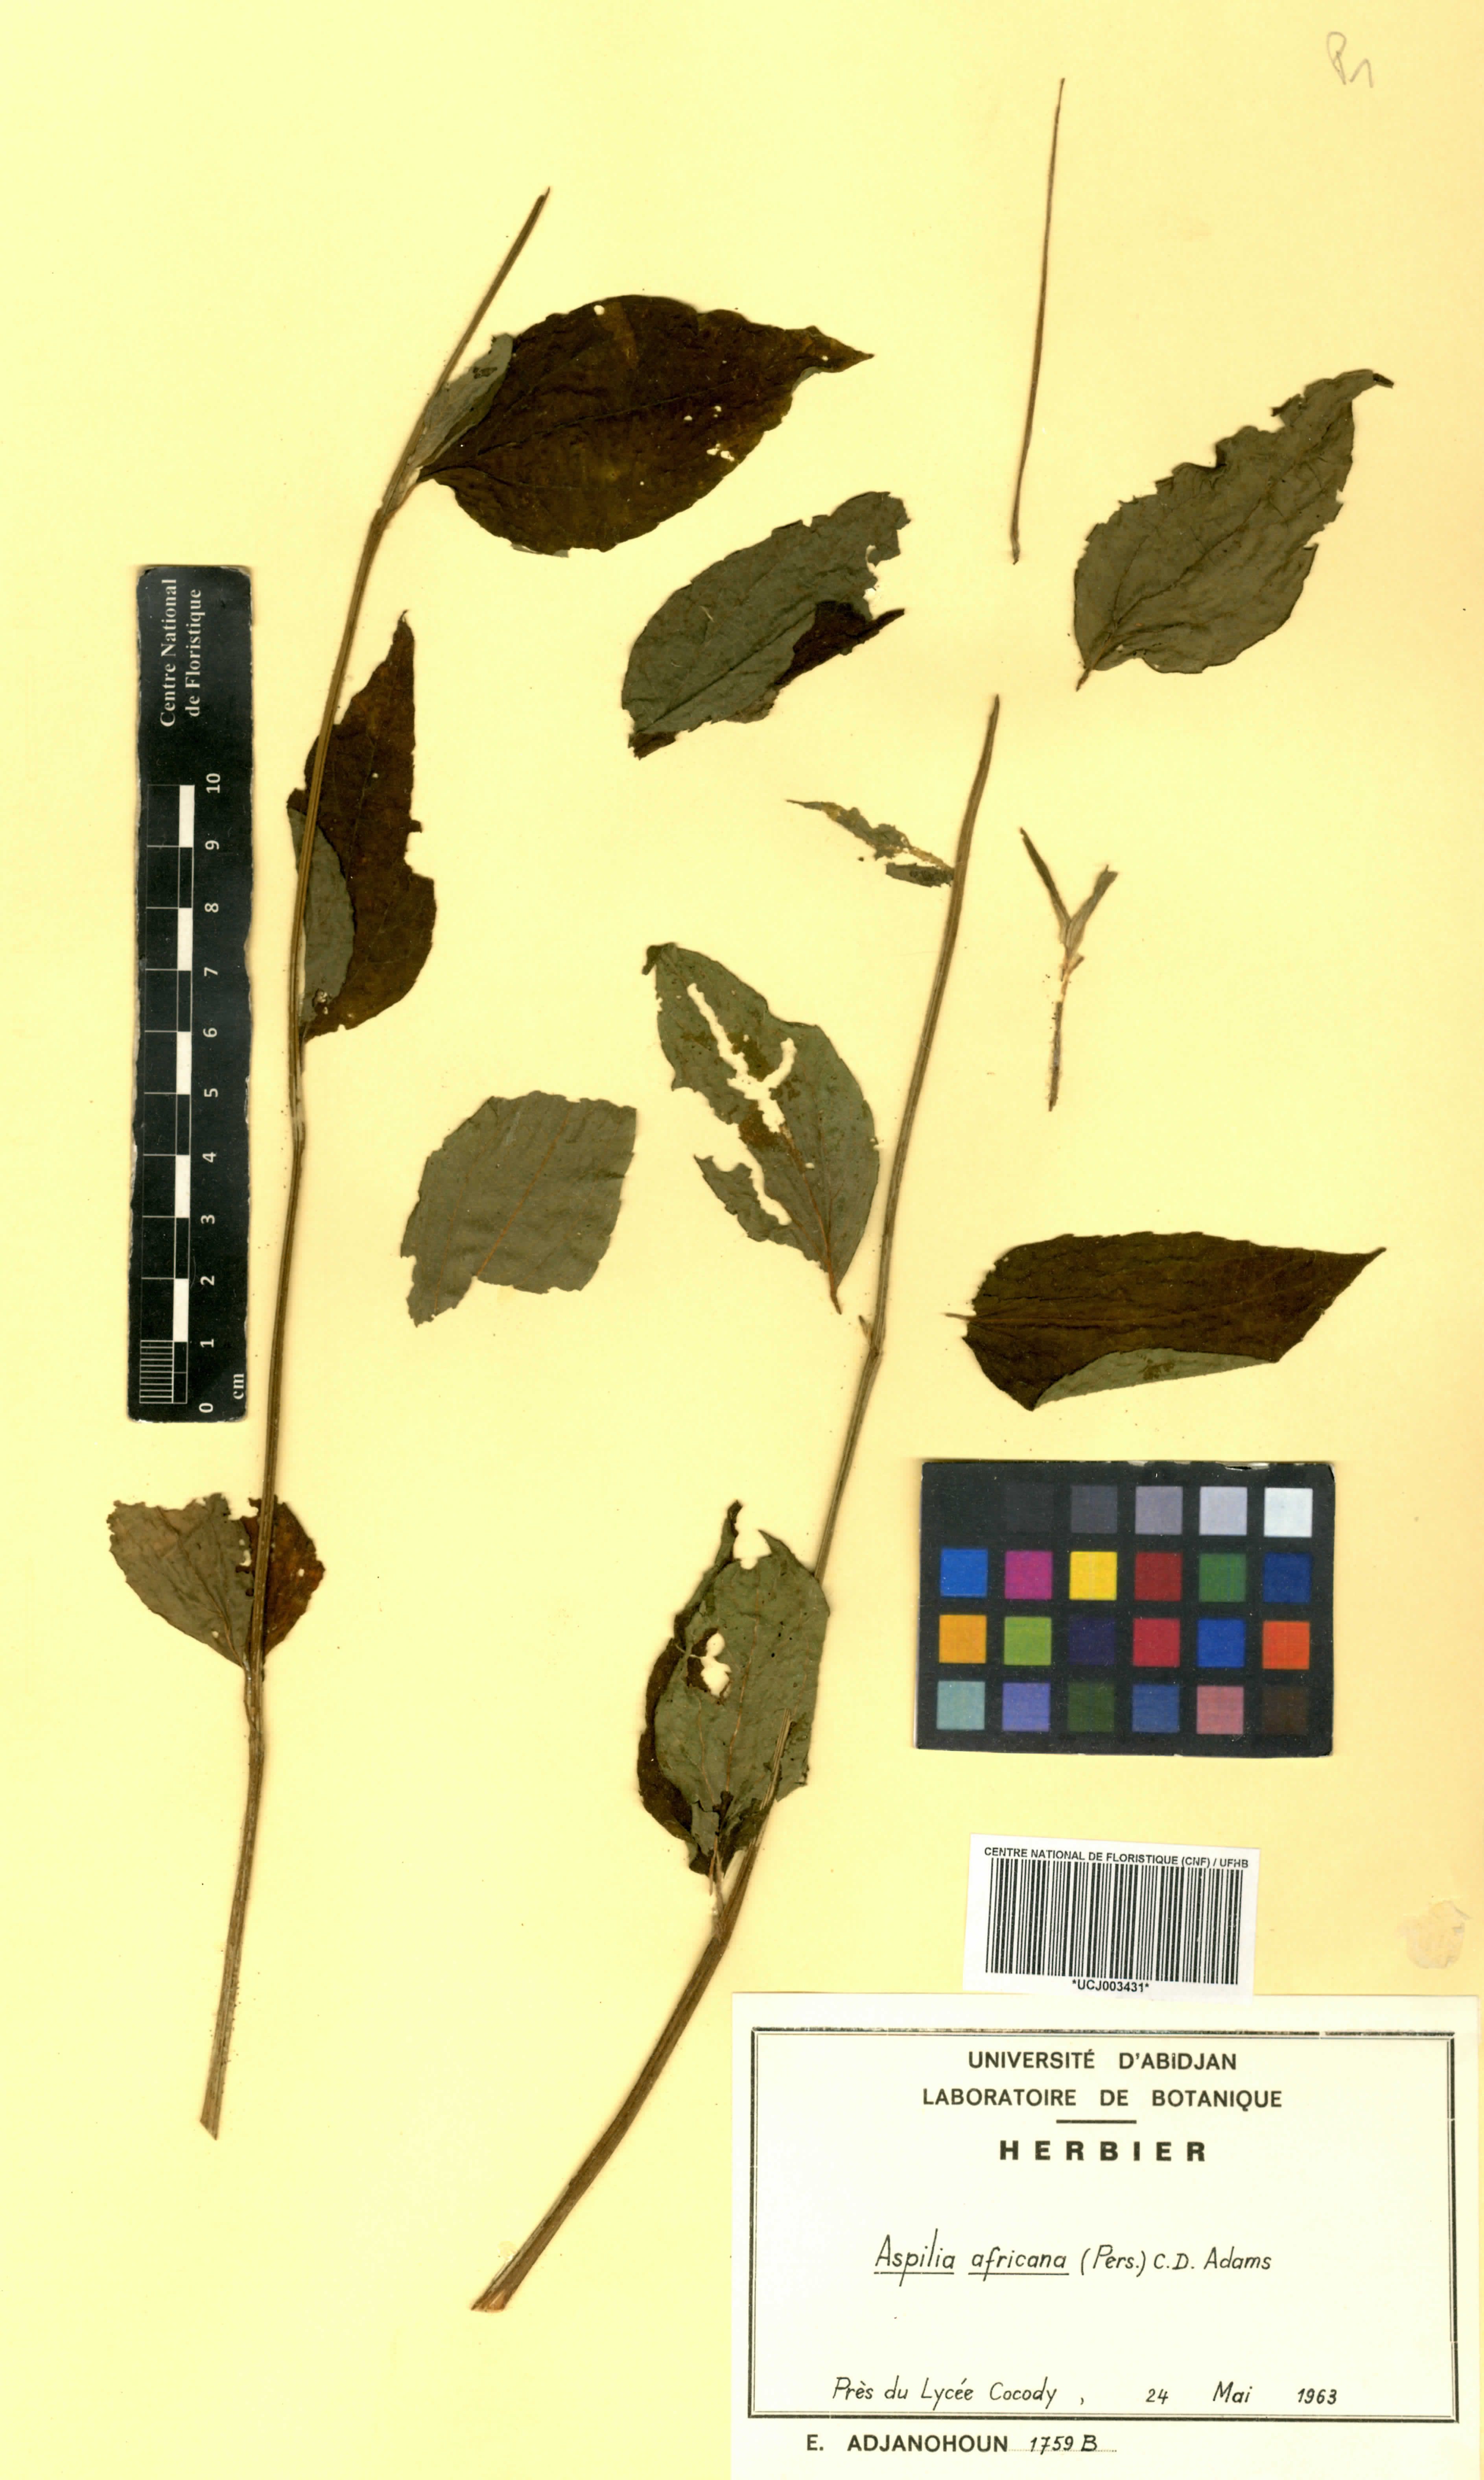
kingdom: Plantae
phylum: Tracheophyta
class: Magnoliopsida
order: Asterales
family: Asteraceae
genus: Aspilia
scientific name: Aspilia africana
